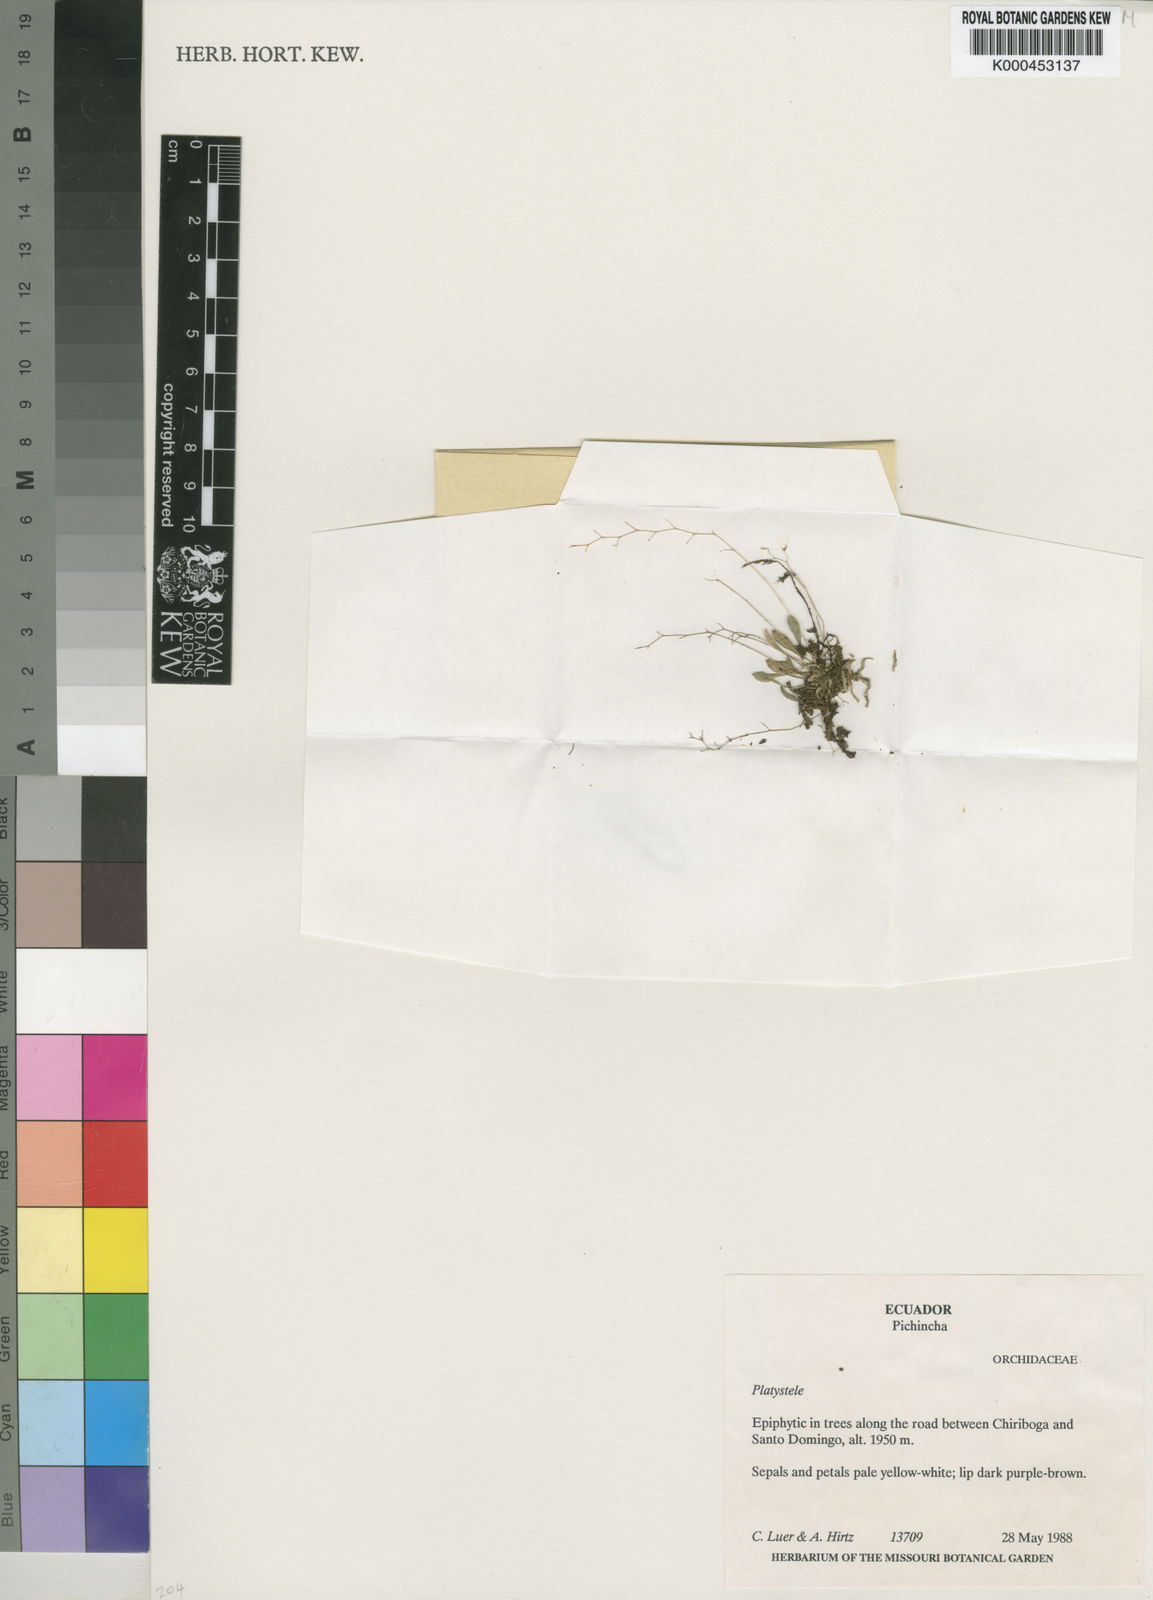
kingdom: Plantae
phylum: Tracheophyta
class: Liliopsida
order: Asparagales
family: Orchidaceae
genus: Platystele
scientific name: Platystele
